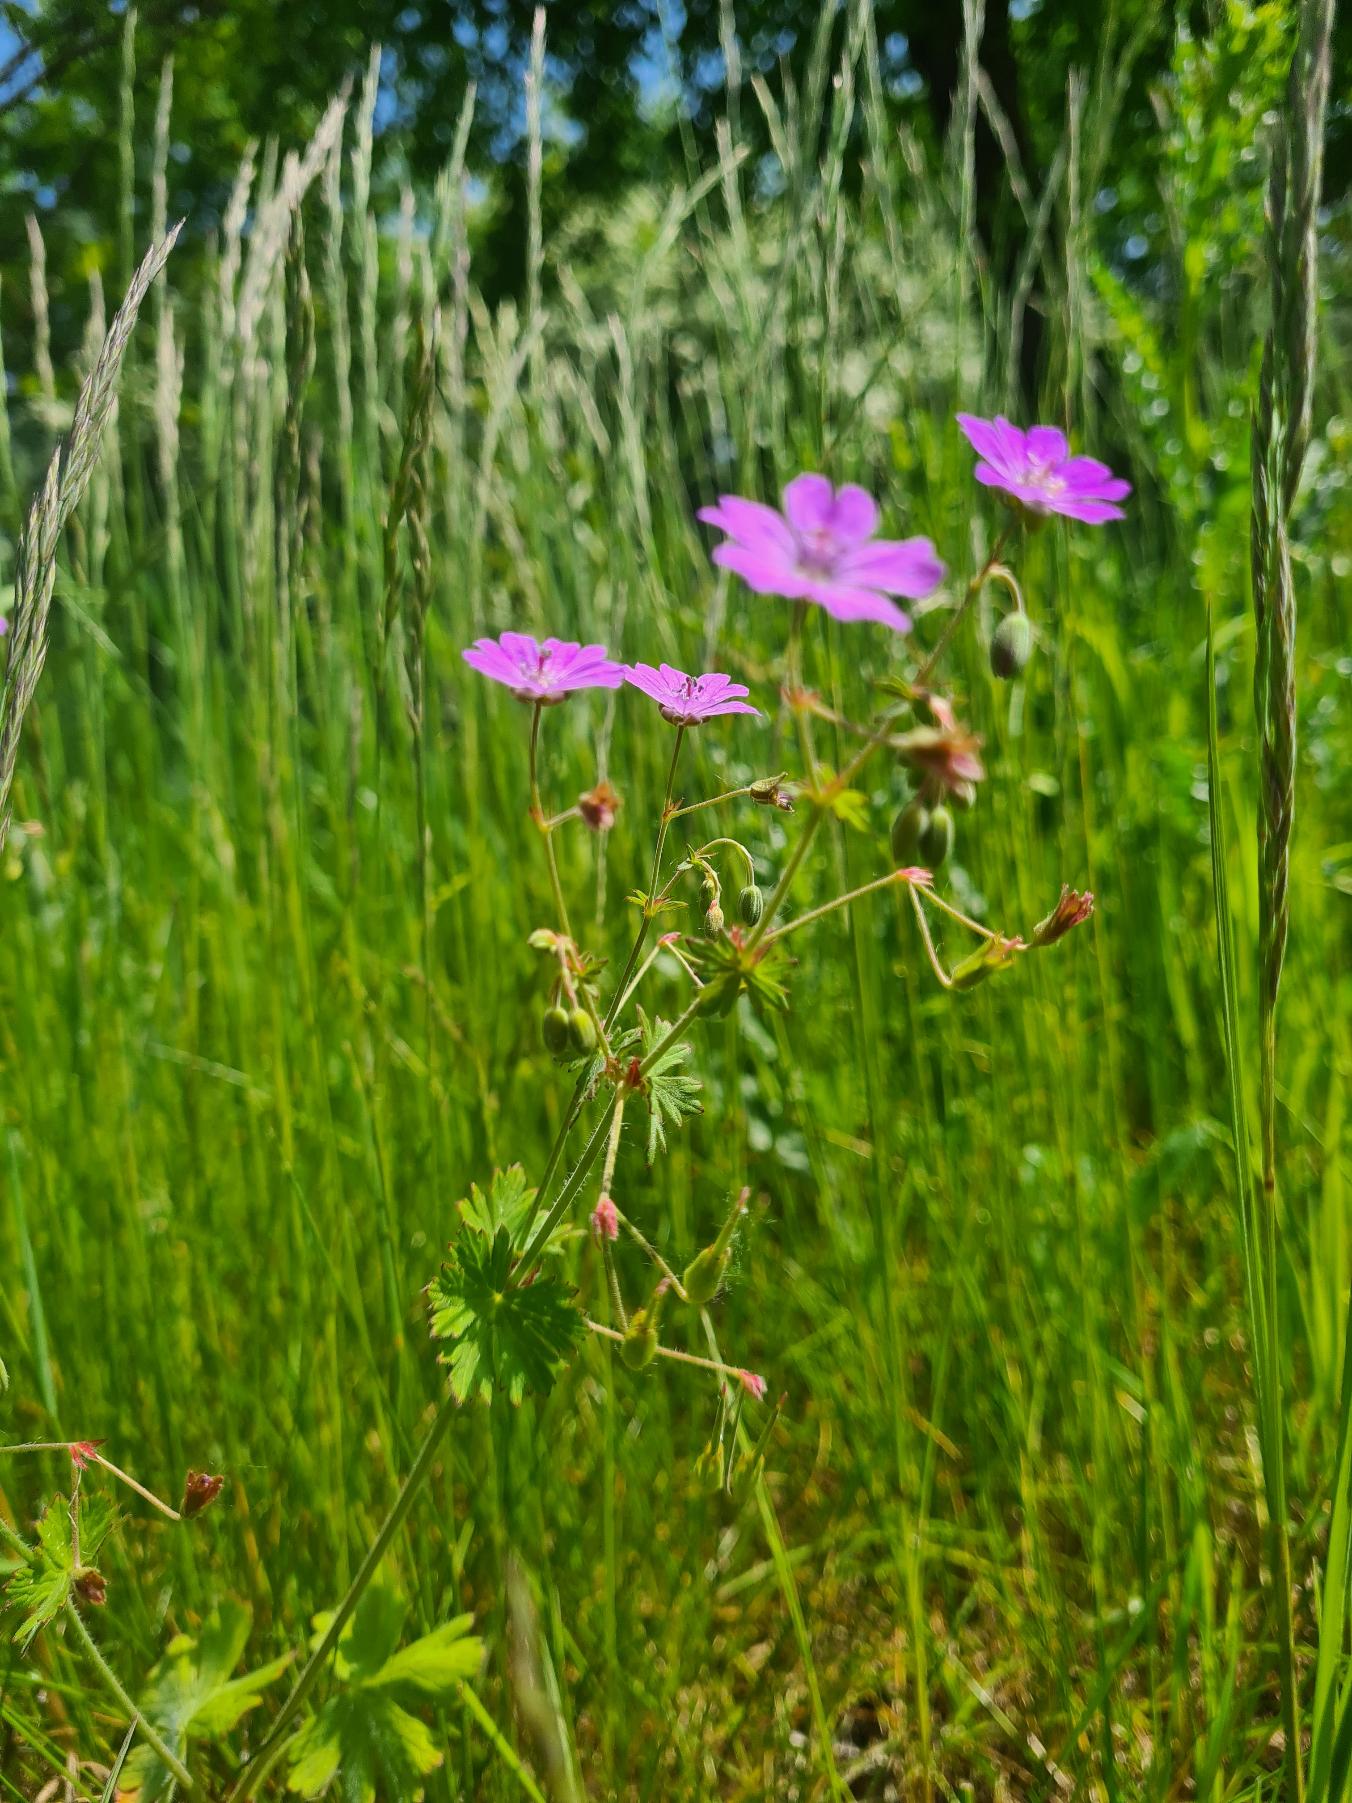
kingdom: Plantae
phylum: Tracheophyta
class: Magnoliopsida
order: Geraniales
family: Geraniaceae
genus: Geranium
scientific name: Geranium pyrenaicum
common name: Pyrenæisk storkenæb
